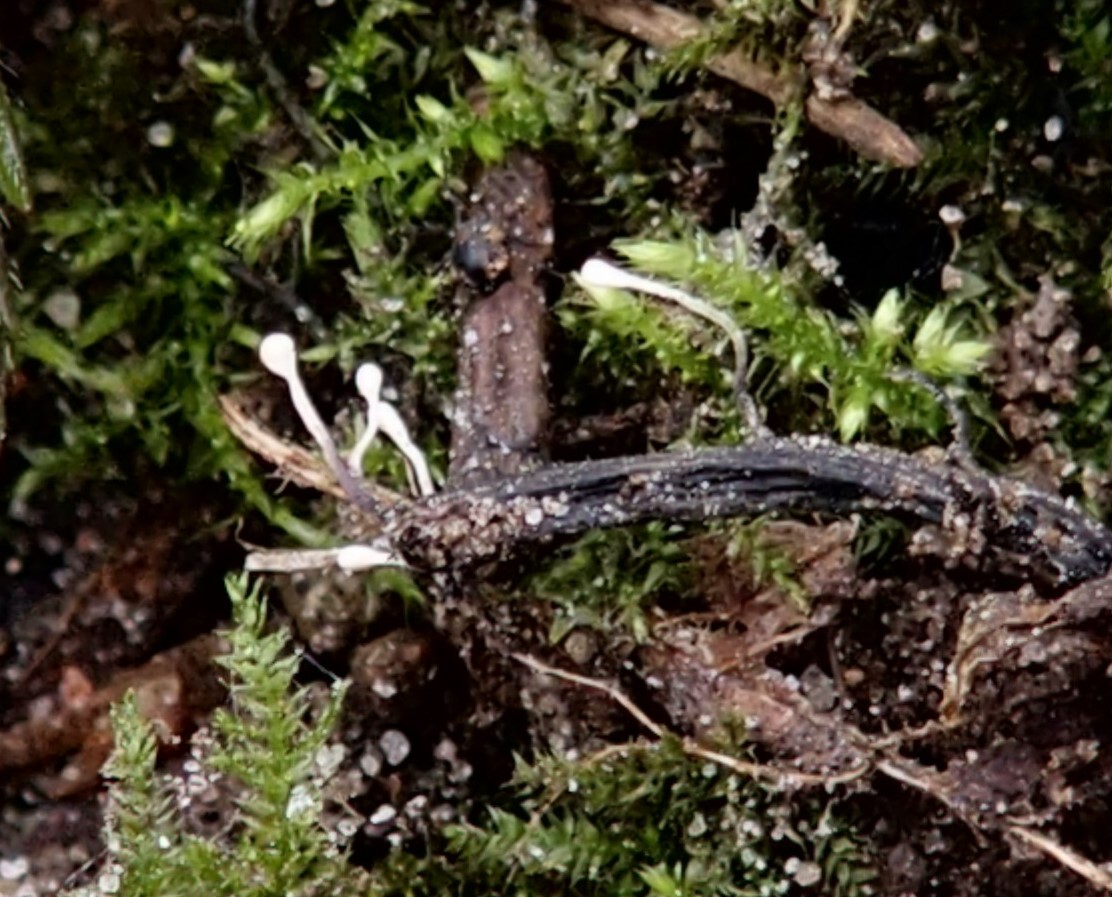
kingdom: Fungi
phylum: Ascomycota
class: Sordariomycetes
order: Hypocreales
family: Ophiocordycipitaceae
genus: Polycephalomyces
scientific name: Polycephalomyces ramosus
